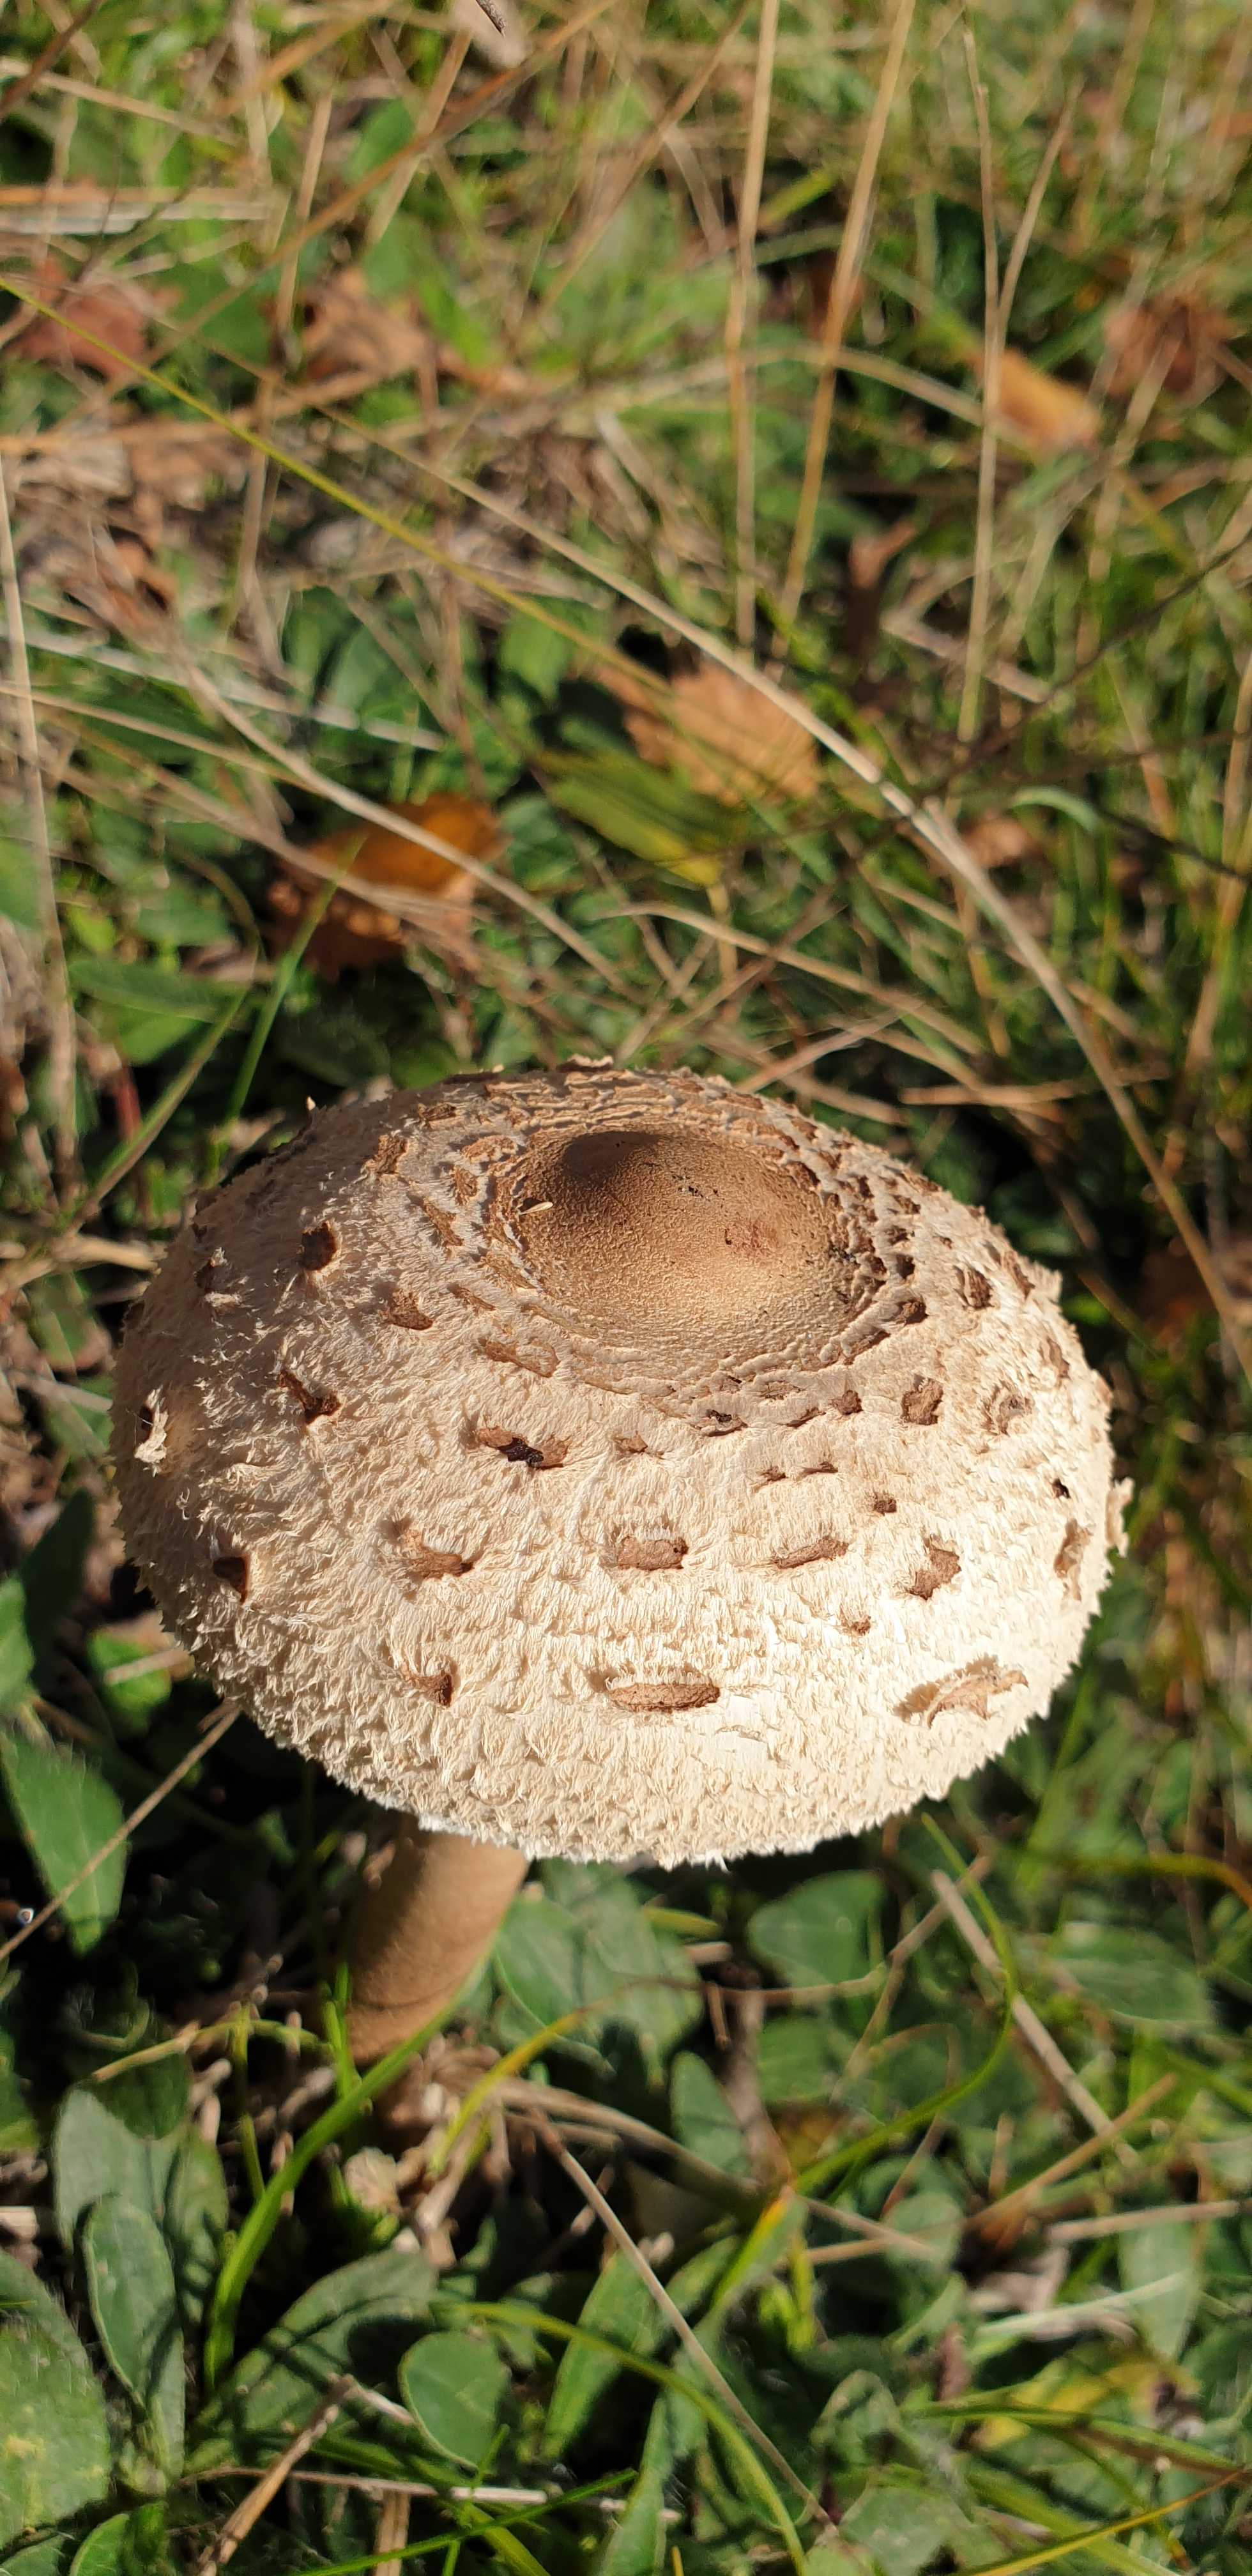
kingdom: Fungi
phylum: Basidiomycota
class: Agaricomycetes
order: Agaricales
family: Agaricaceae
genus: Macrolepiota
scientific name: Macrolepiota procera
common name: stor kæmpeparasolhat
